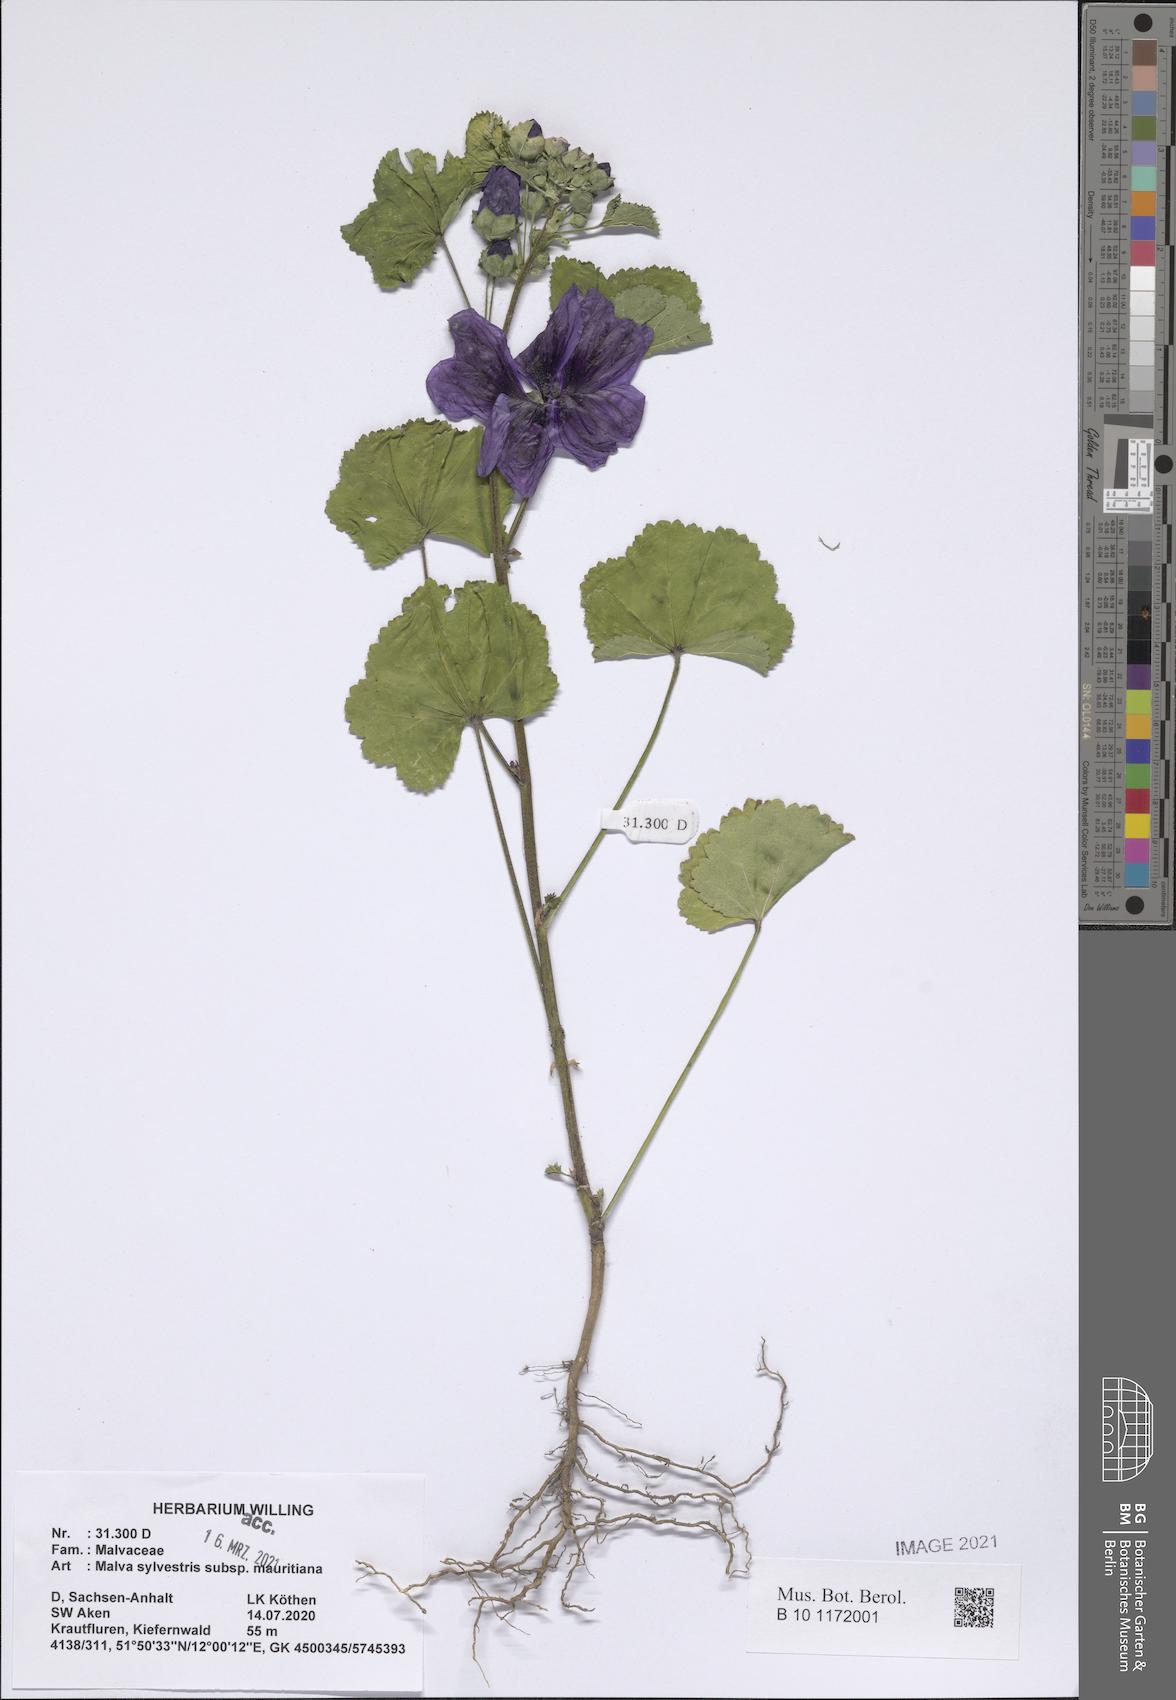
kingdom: Plantae
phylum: Tracheophyta
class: Magnoliopsida
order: Malvales
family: Malvaceae
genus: Malva
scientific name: Malva sylvestris
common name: Common mallow
